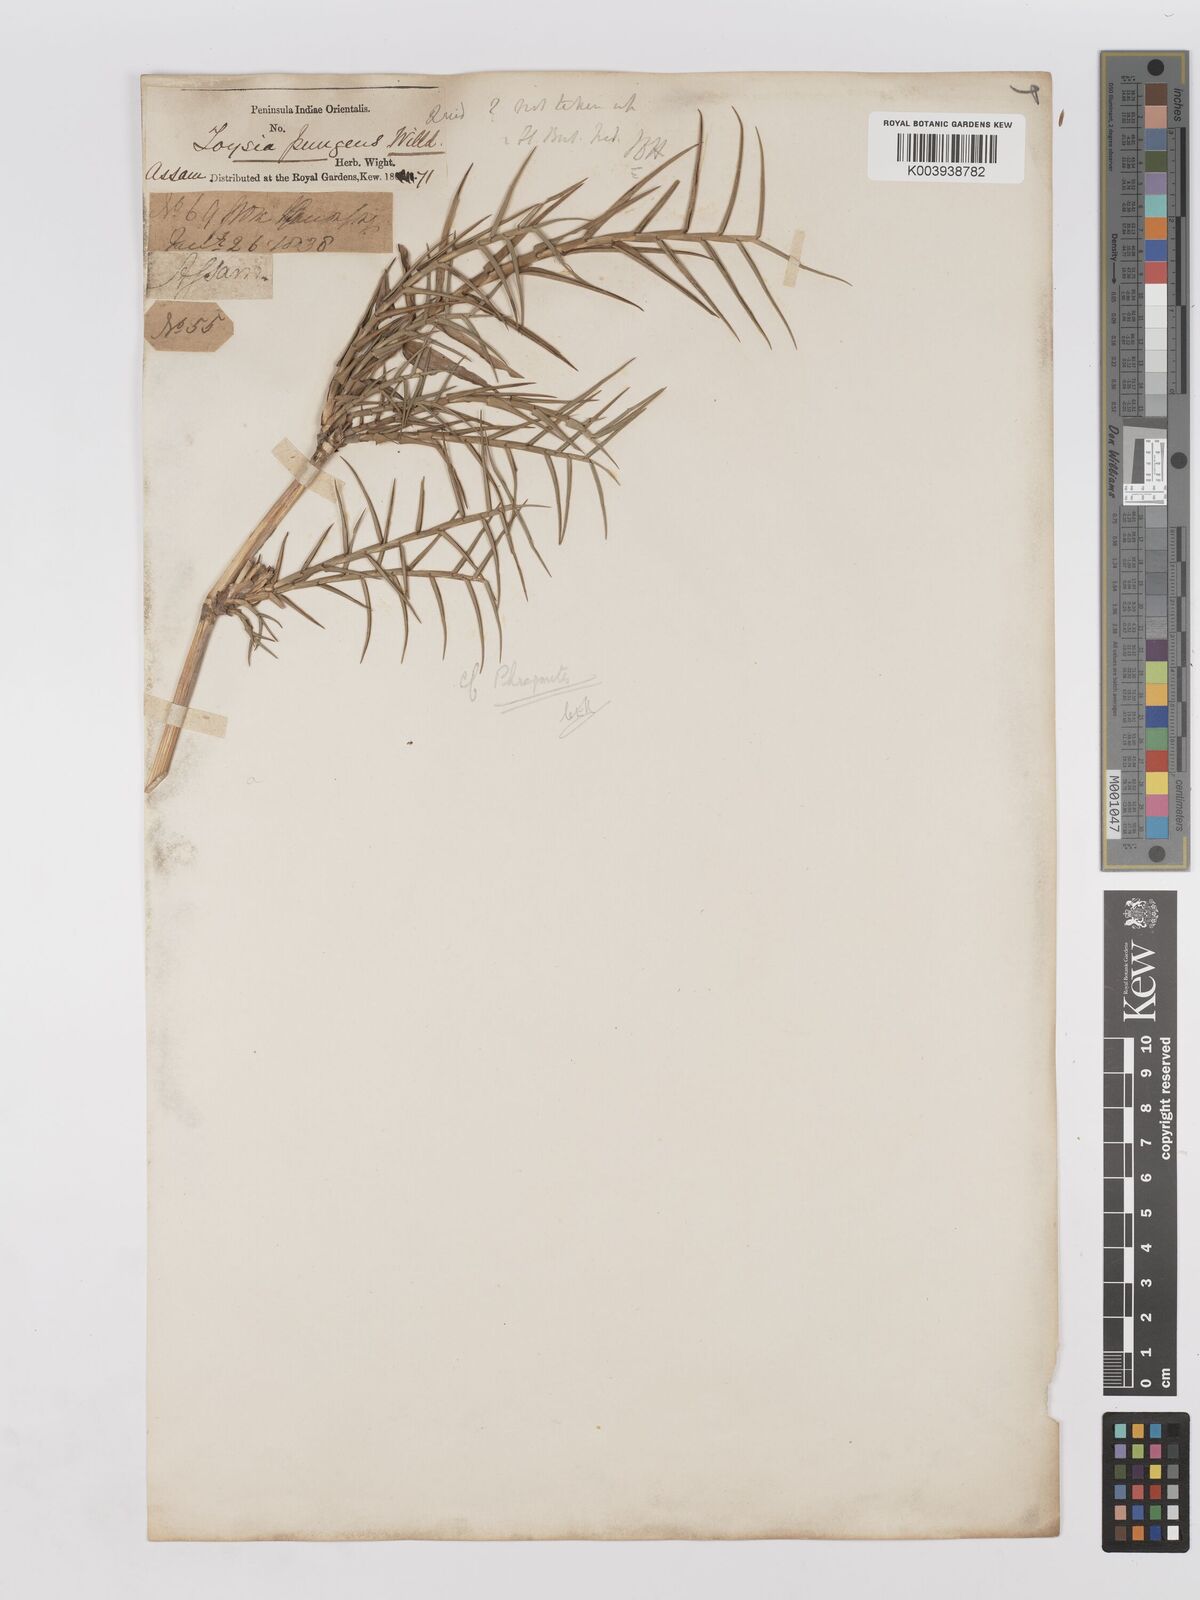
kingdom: Plantae
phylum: Tracheophyta
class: Liliopsida
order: Poales
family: Poaceae
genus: Phragmites
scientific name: Phragmites australis
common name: Common reed
